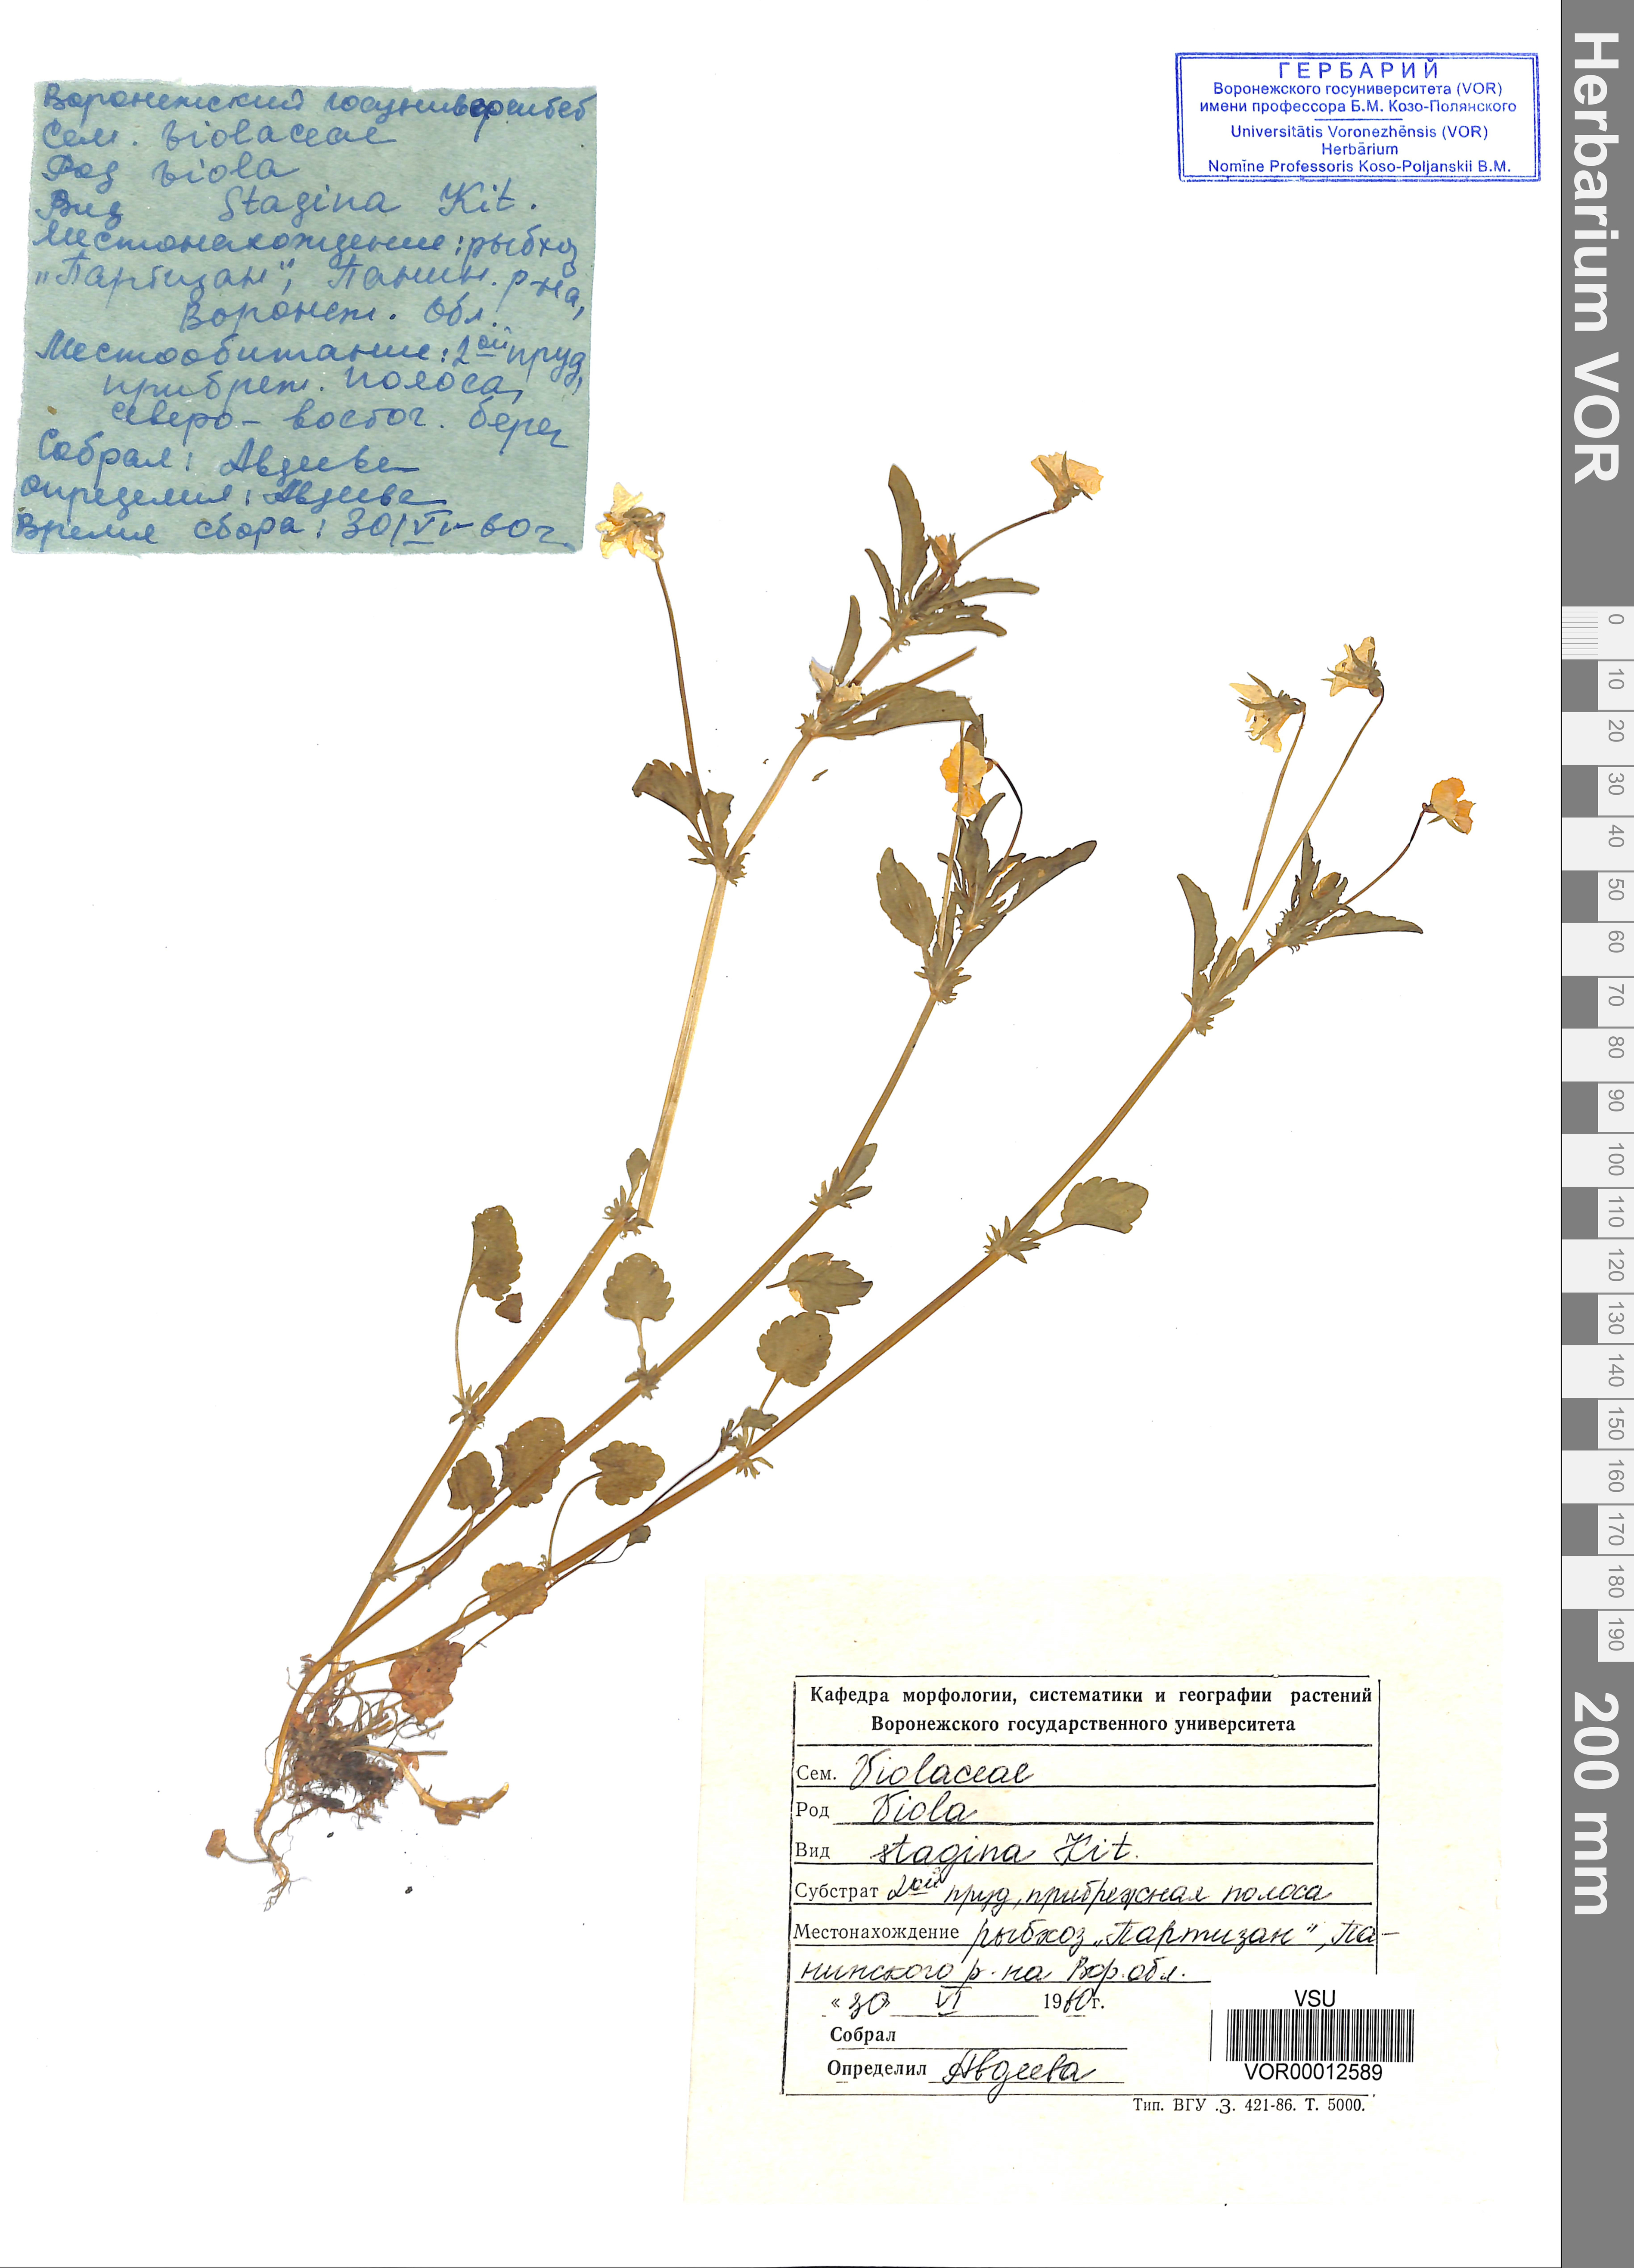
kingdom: Plantae
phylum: Tracheophyta
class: Magnoliopsida
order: Malpighiales
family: Violaceae
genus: Viola
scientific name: Viola stagnina
